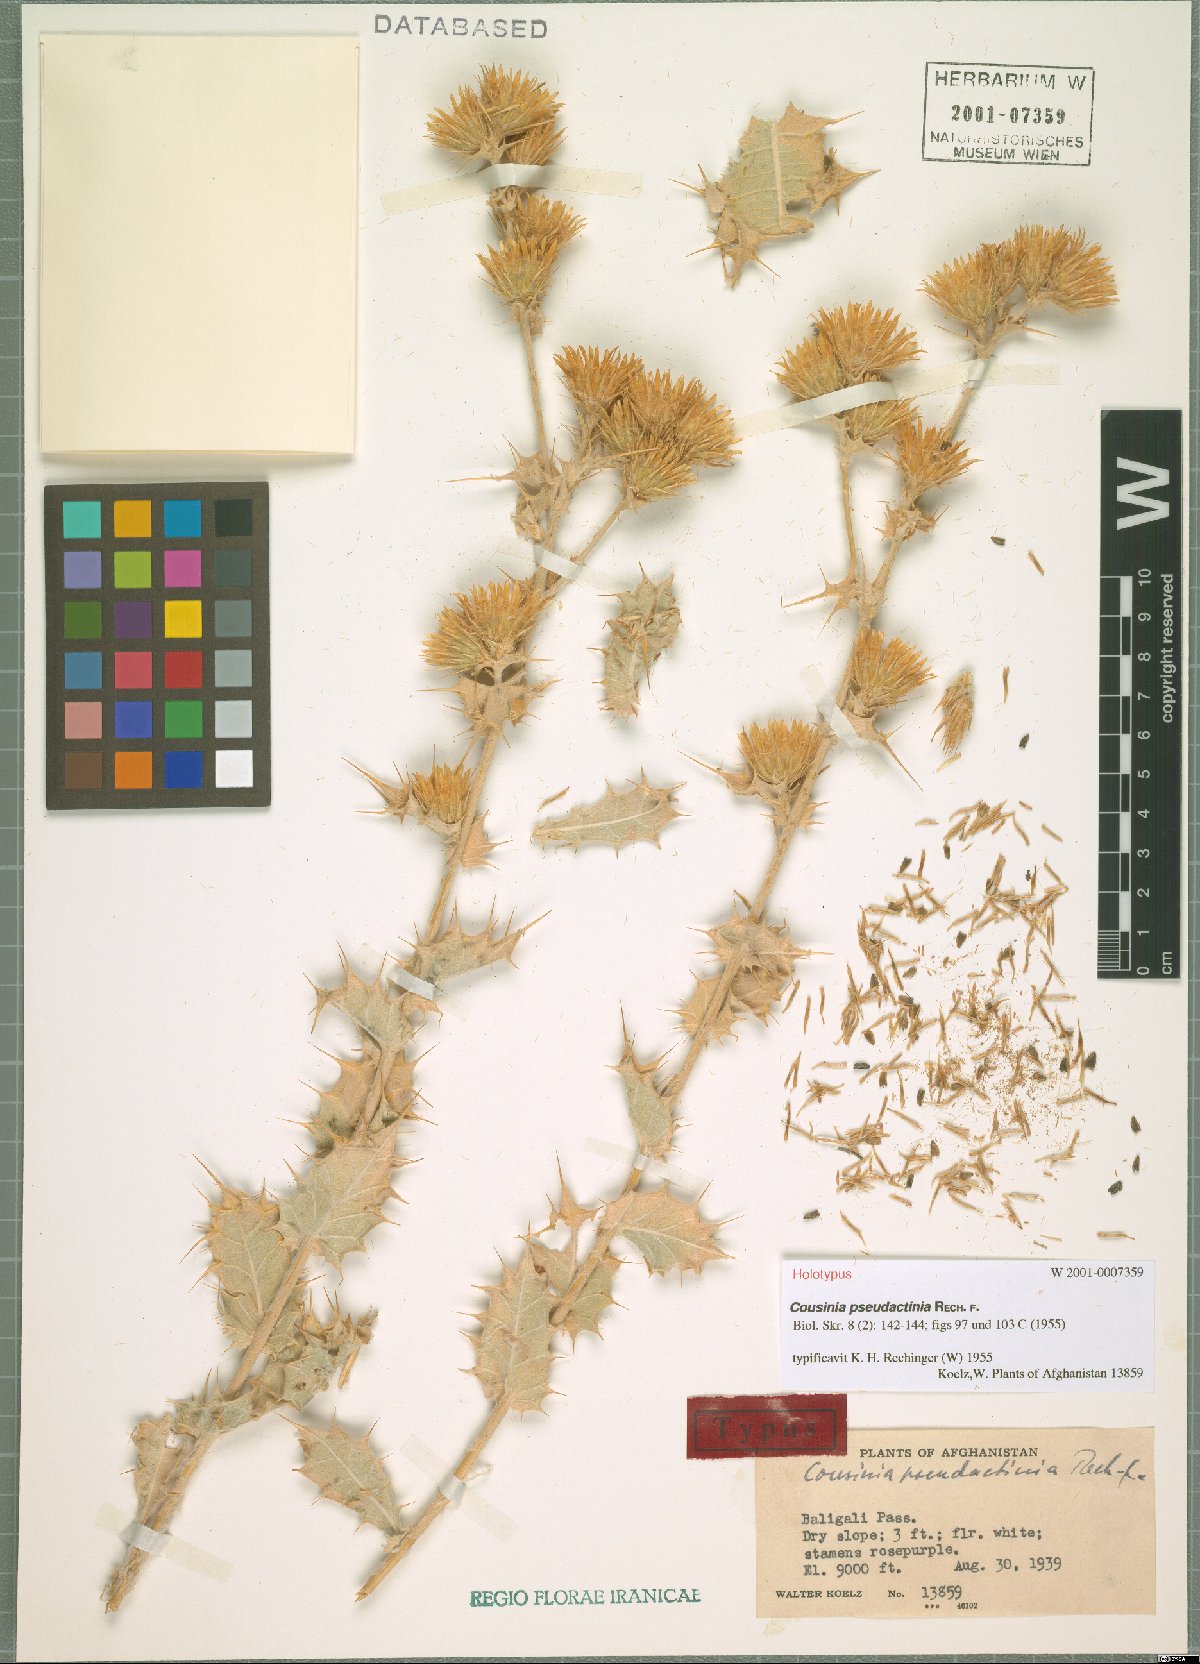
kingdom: Plantae
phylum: Tracheophyta
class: Magnoliopsida
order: Asterales
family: Asteraceae
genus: Cousinia
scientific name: Cousinia pseudactinia
